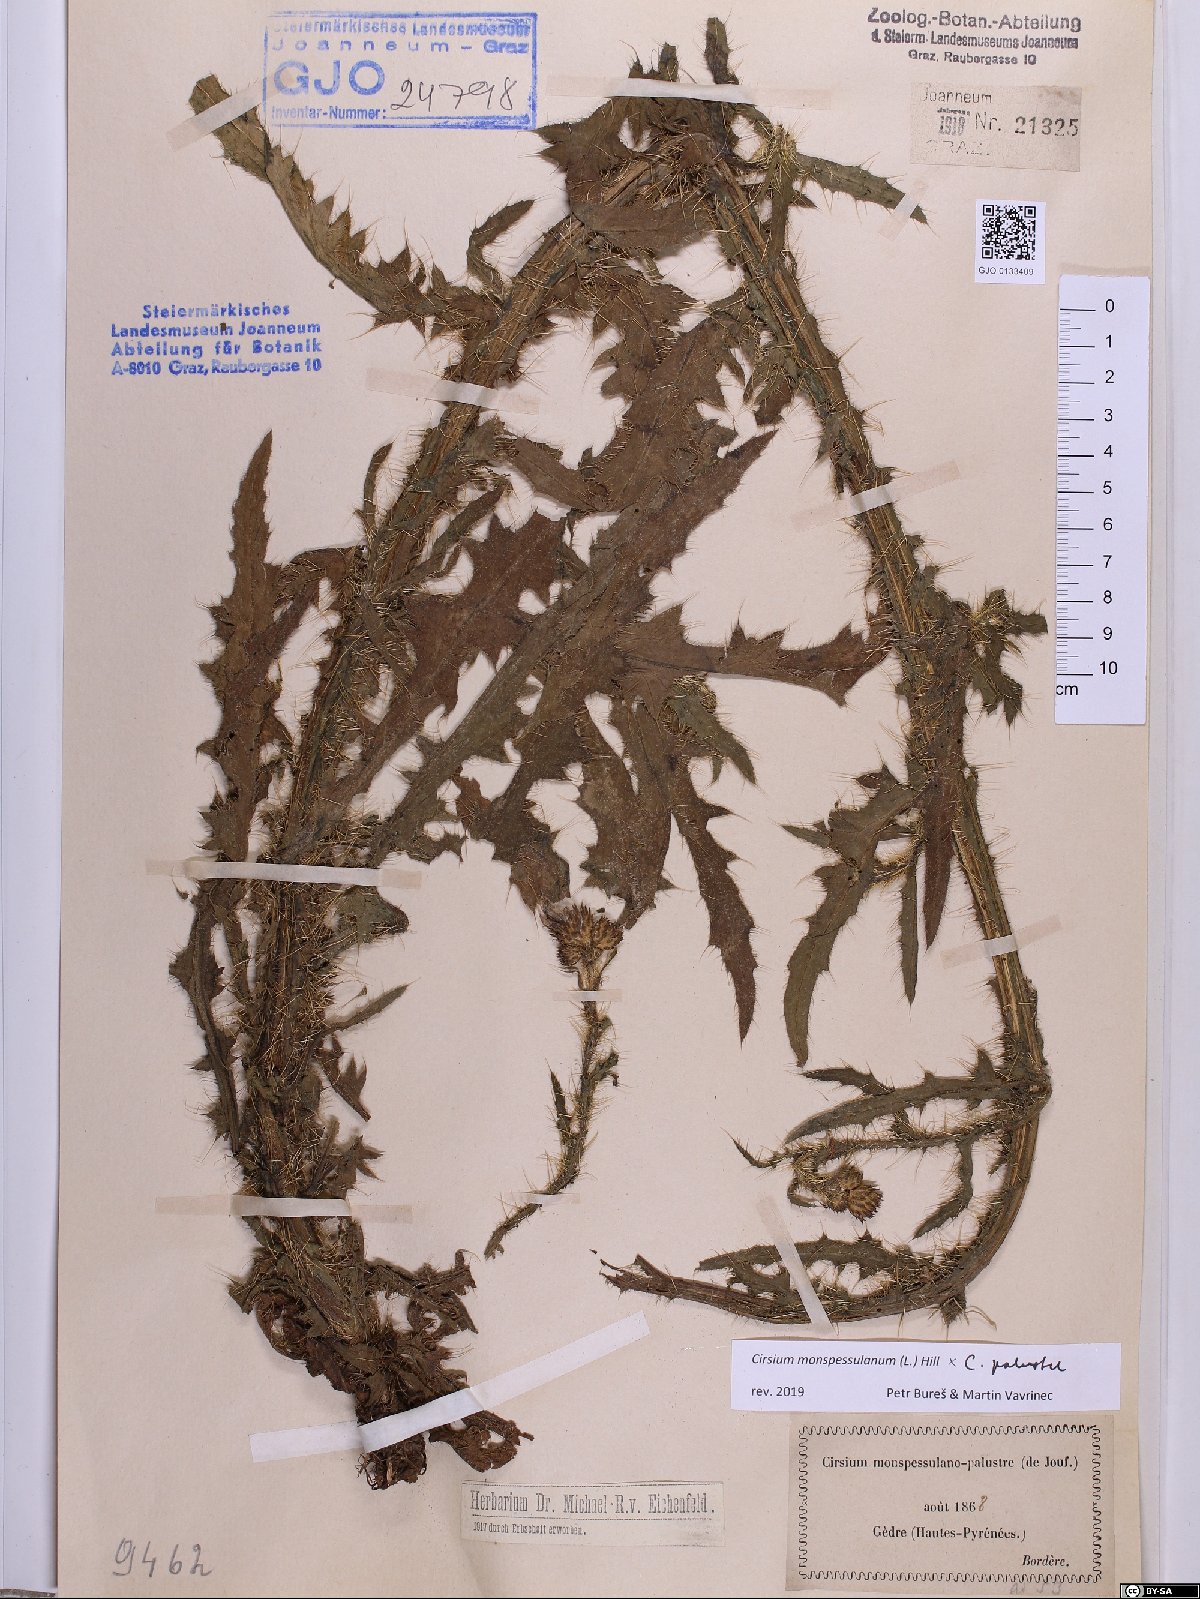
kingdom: Plantae
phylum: Tracheophyta
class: Magnoliopsida
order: Asterales
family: Asteraceae
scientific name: Asteraceae
